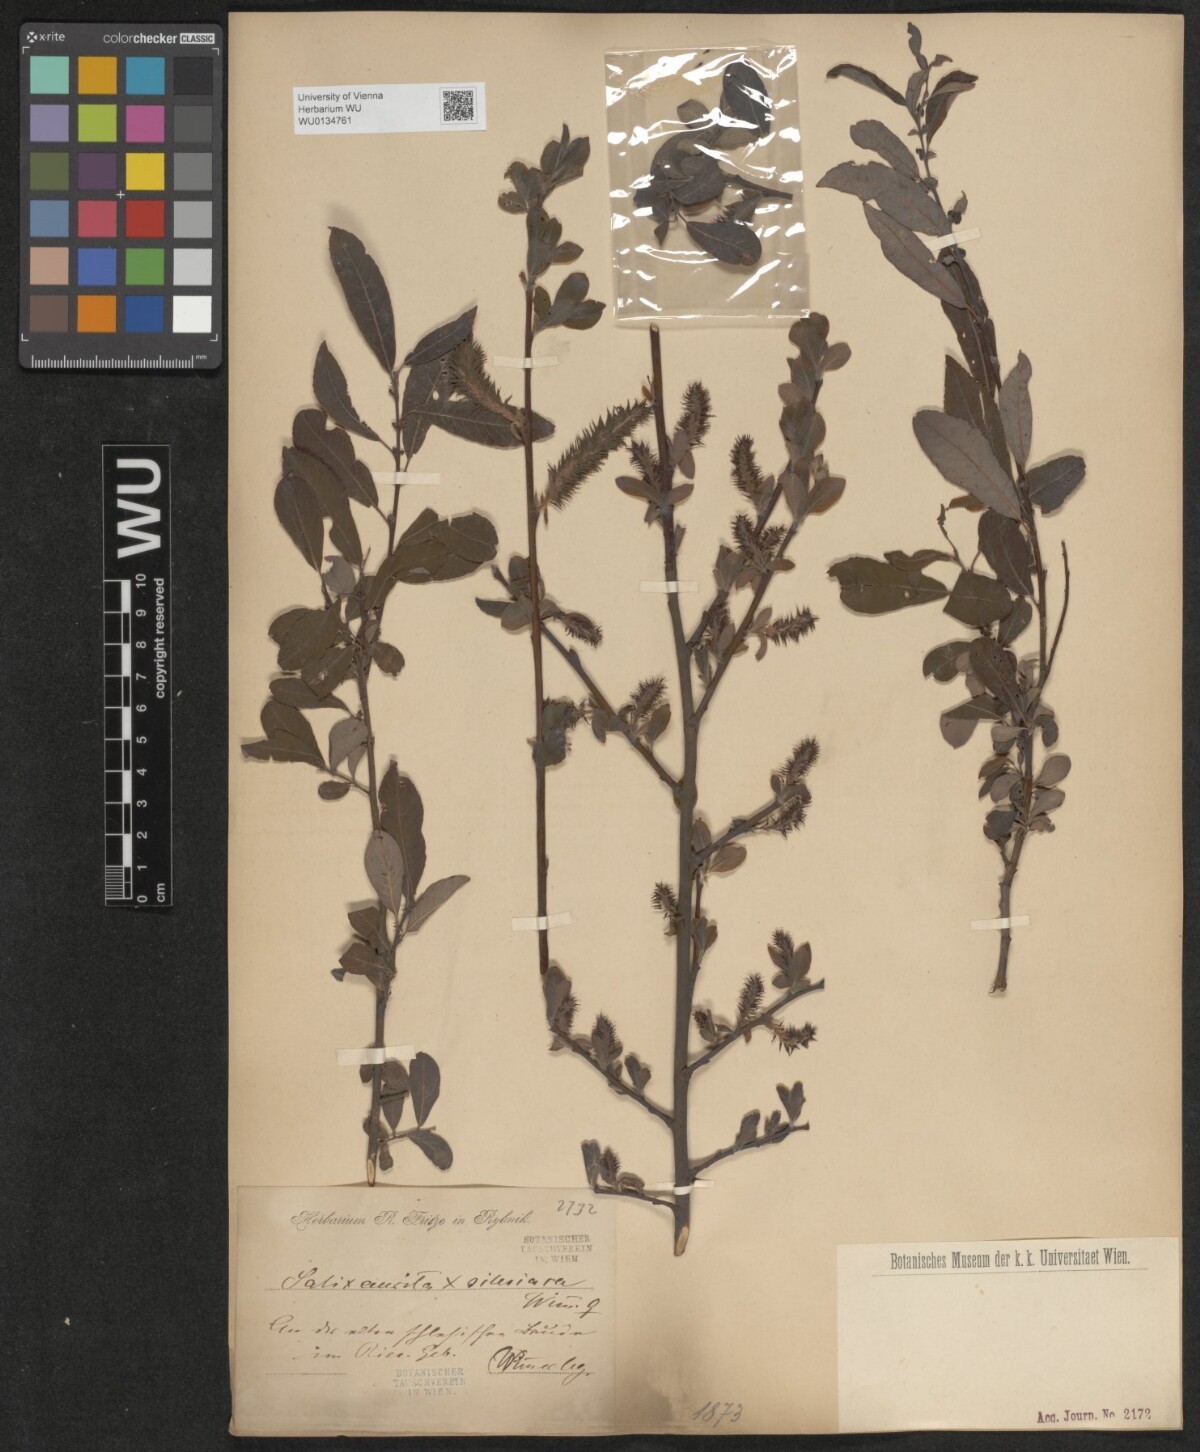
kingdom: Plantae
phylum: Tracheophyta
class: Magnoliopsida
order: Malpighiales
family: Salicaceae
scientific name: Salicaceae
